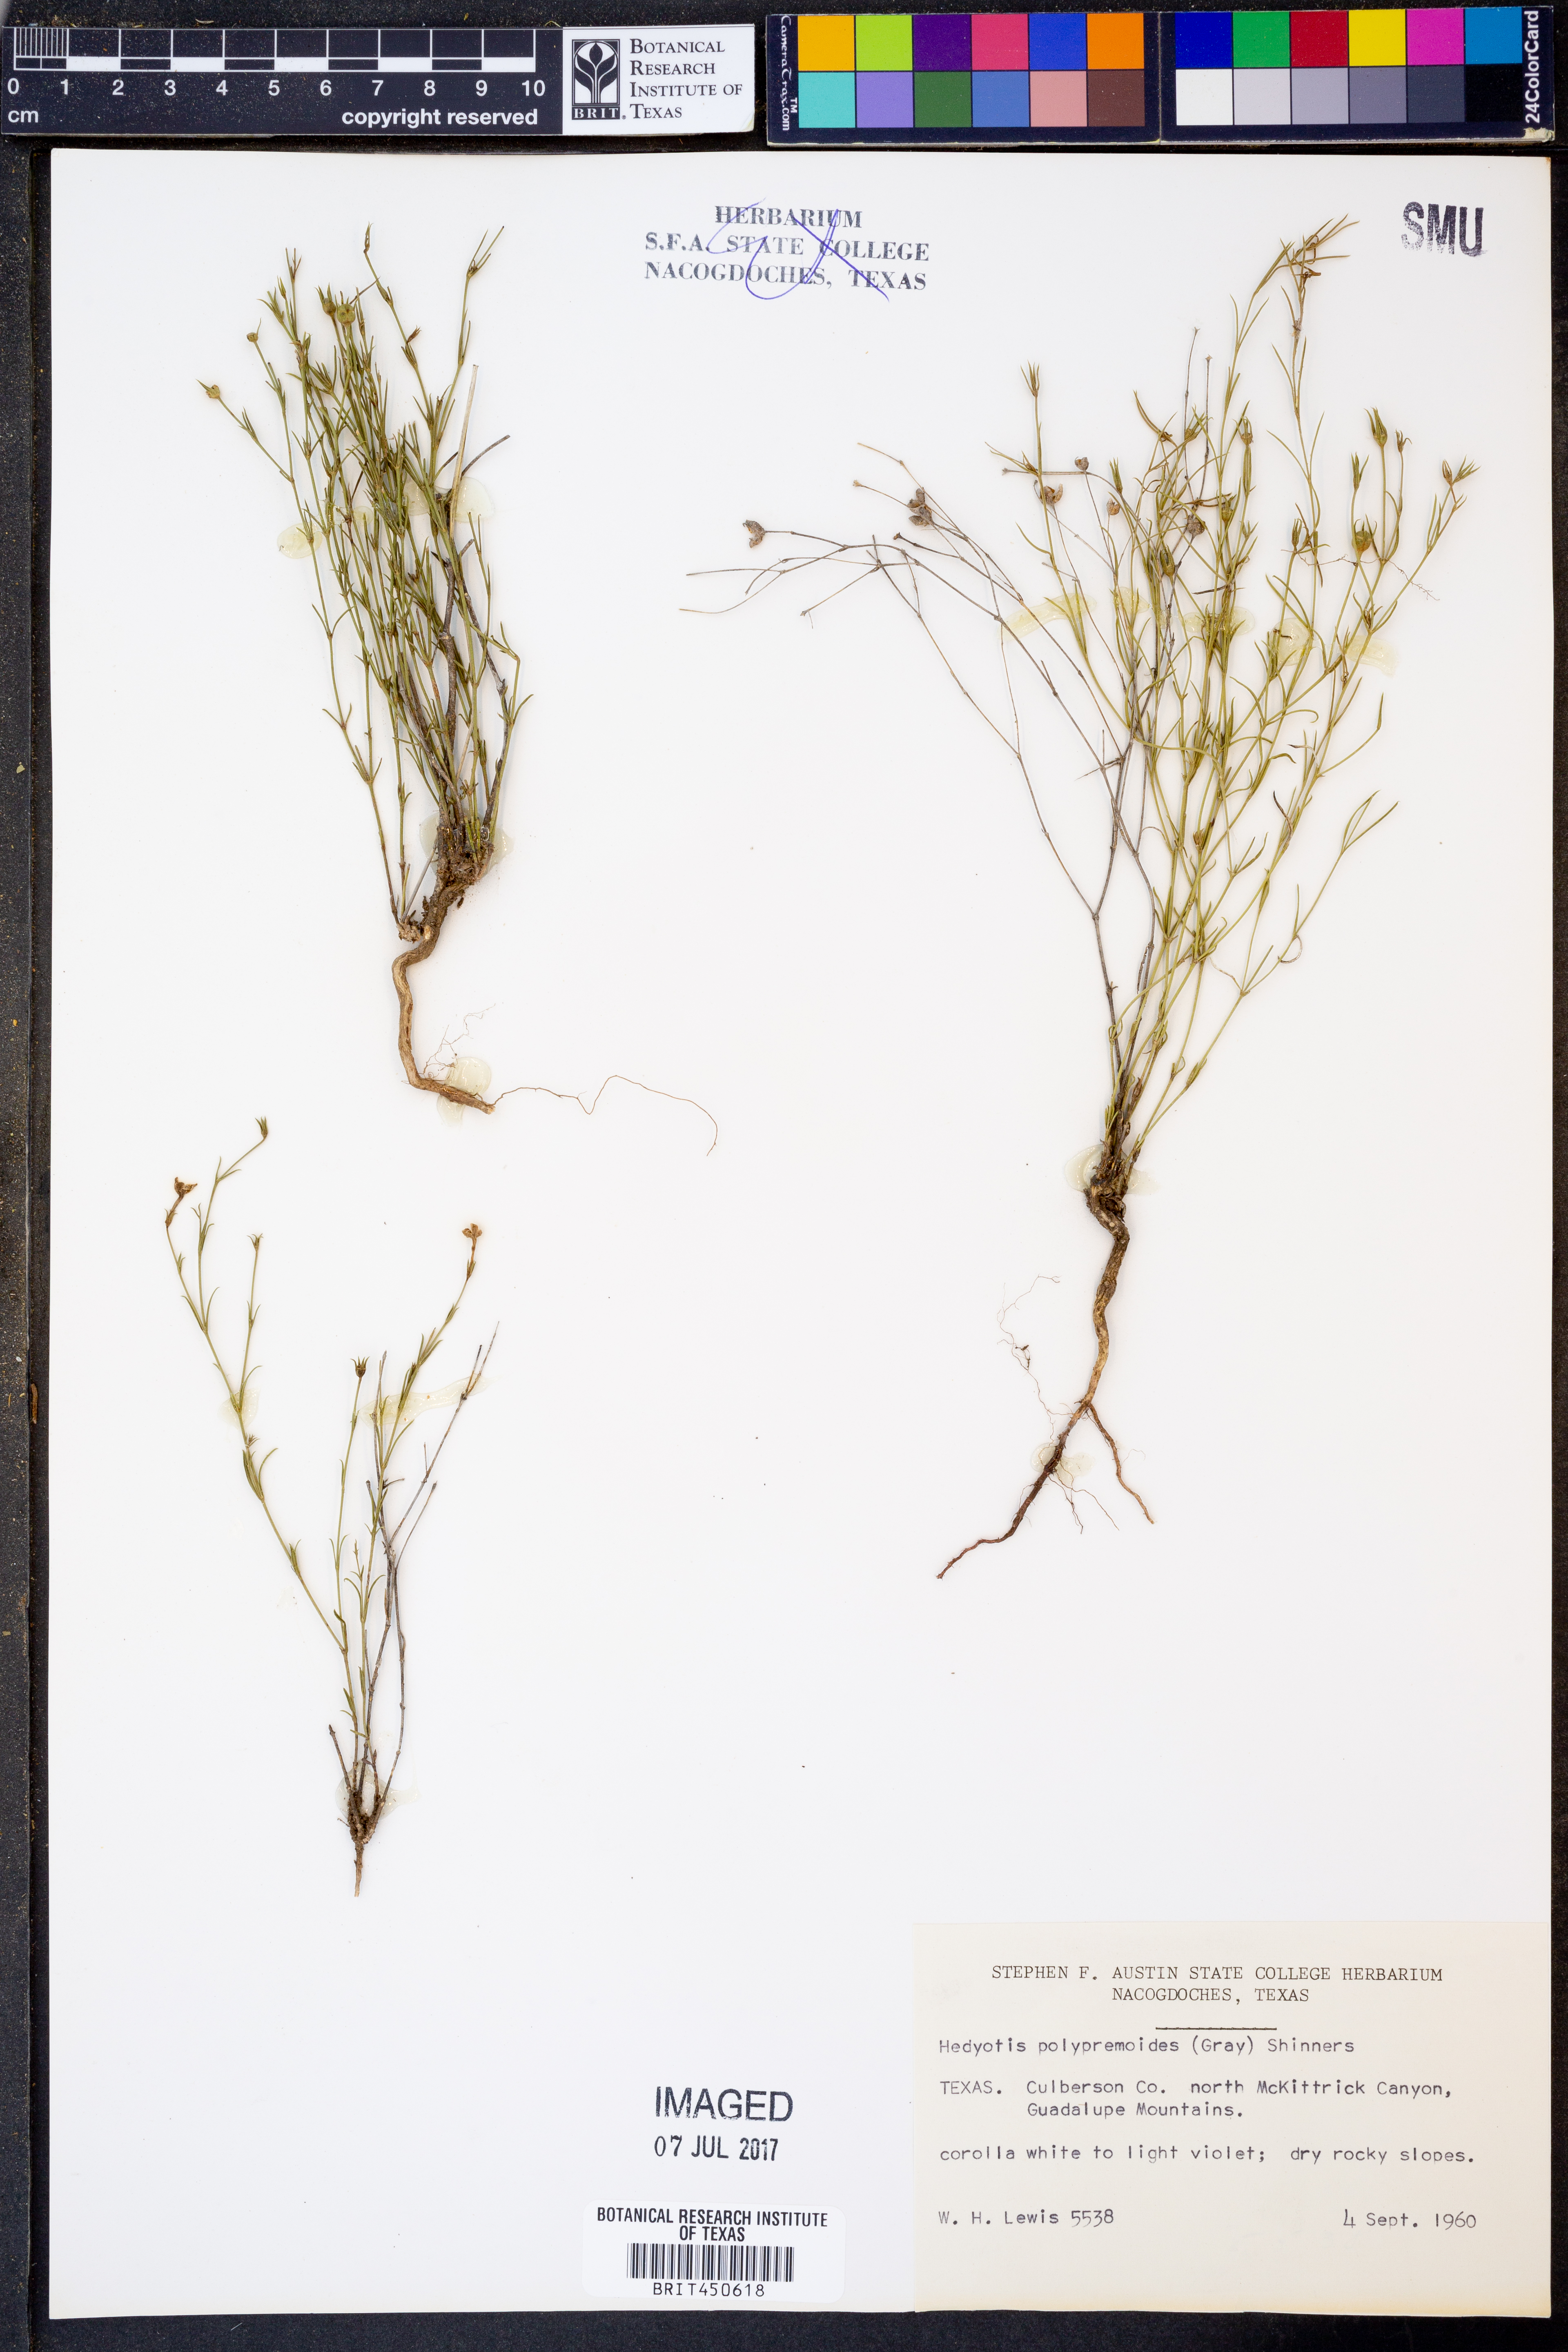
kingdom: Plantae
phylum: Tracheophyta
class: Magnoliopsida
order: Gentianales
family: Rubiaceae
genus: Houstonia
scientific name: Houstonia acerosa
